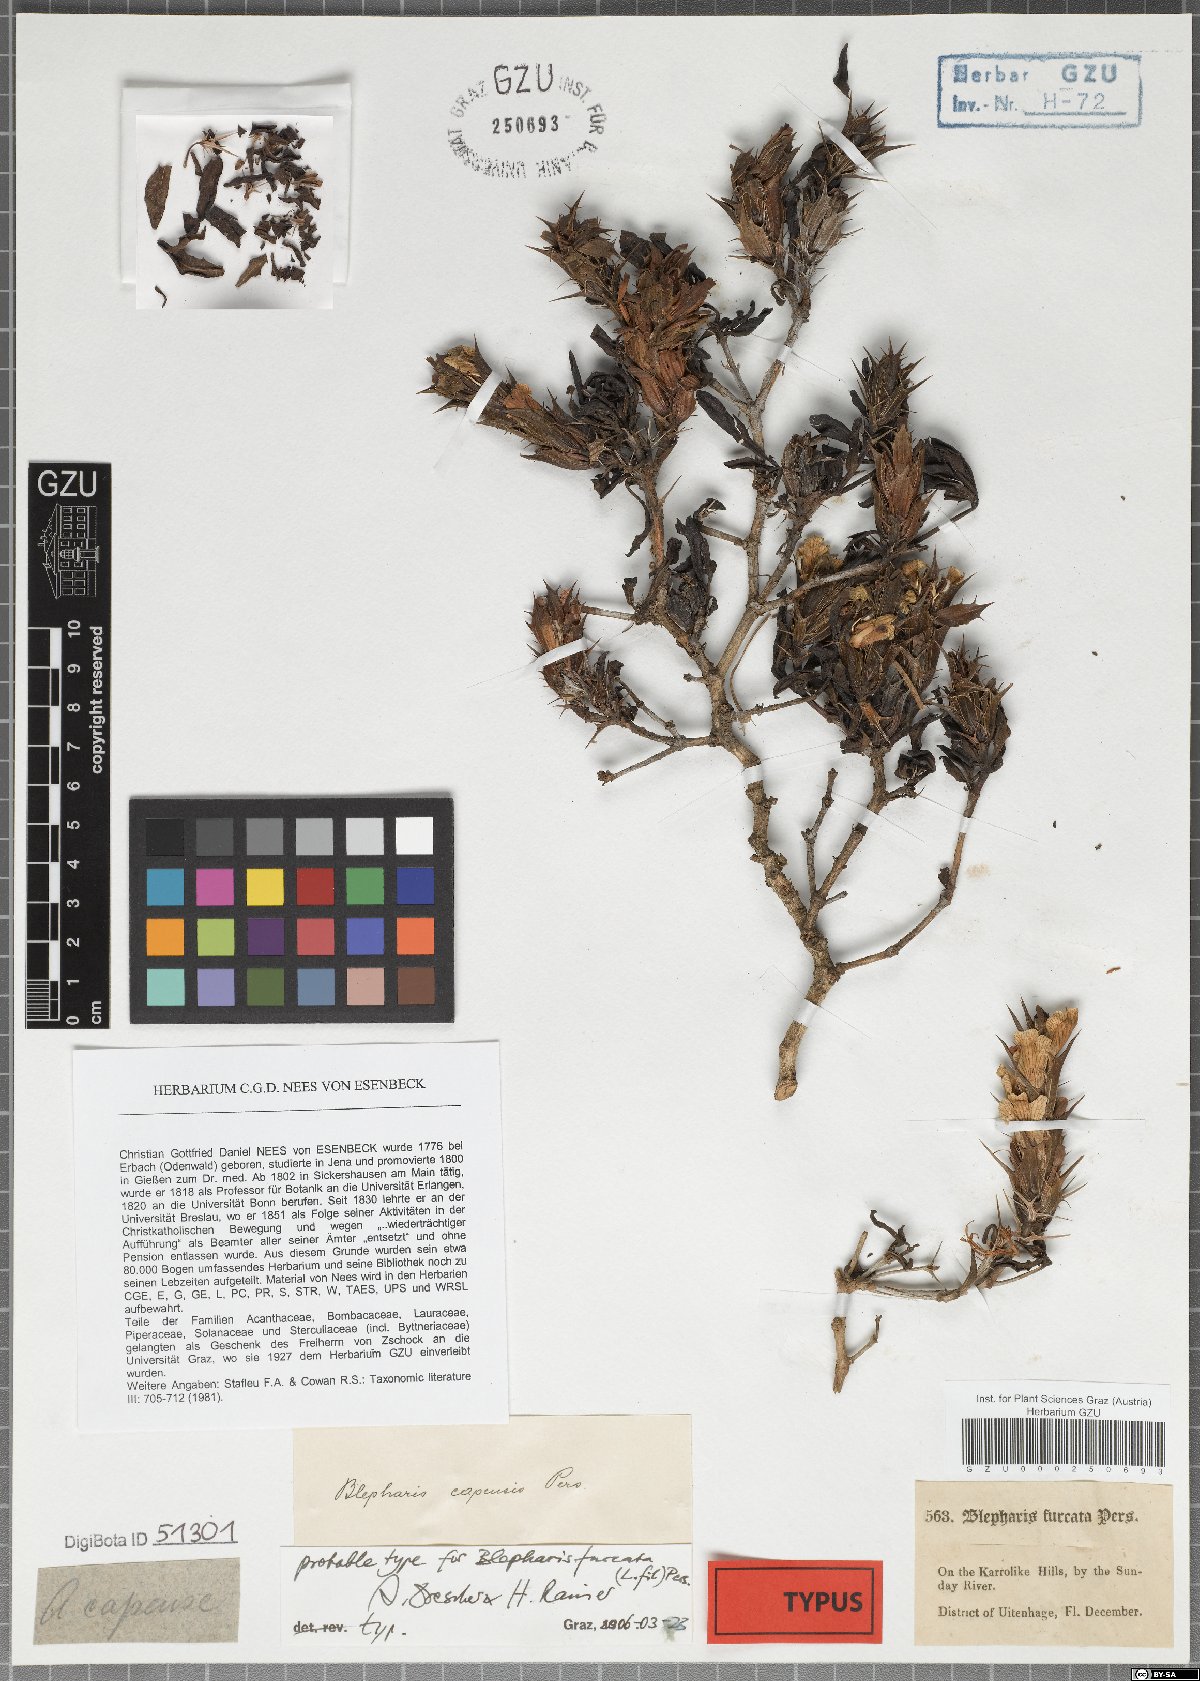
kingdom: Plantae
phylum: Tracheophyta
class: Magnoliopsida
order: Lamiales
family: Acanthaceae
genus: Blepharis
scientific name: Blepharis furcata
